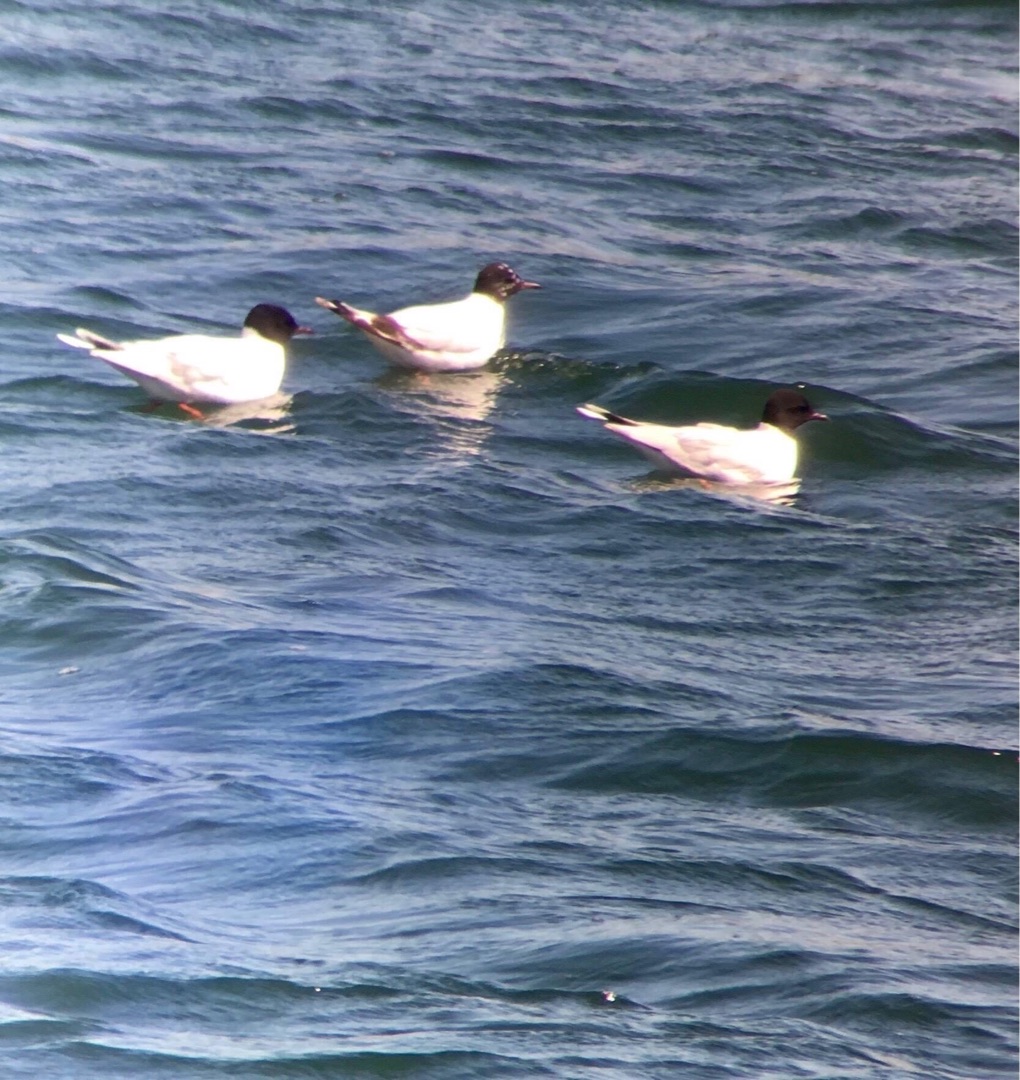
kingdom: Animalia
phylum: Chordata
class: Aves
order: Charadriiformes
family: Laridae
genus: Hydrocoloeus
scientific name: Hydrocoloeus minutus
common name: Dværgmåge
